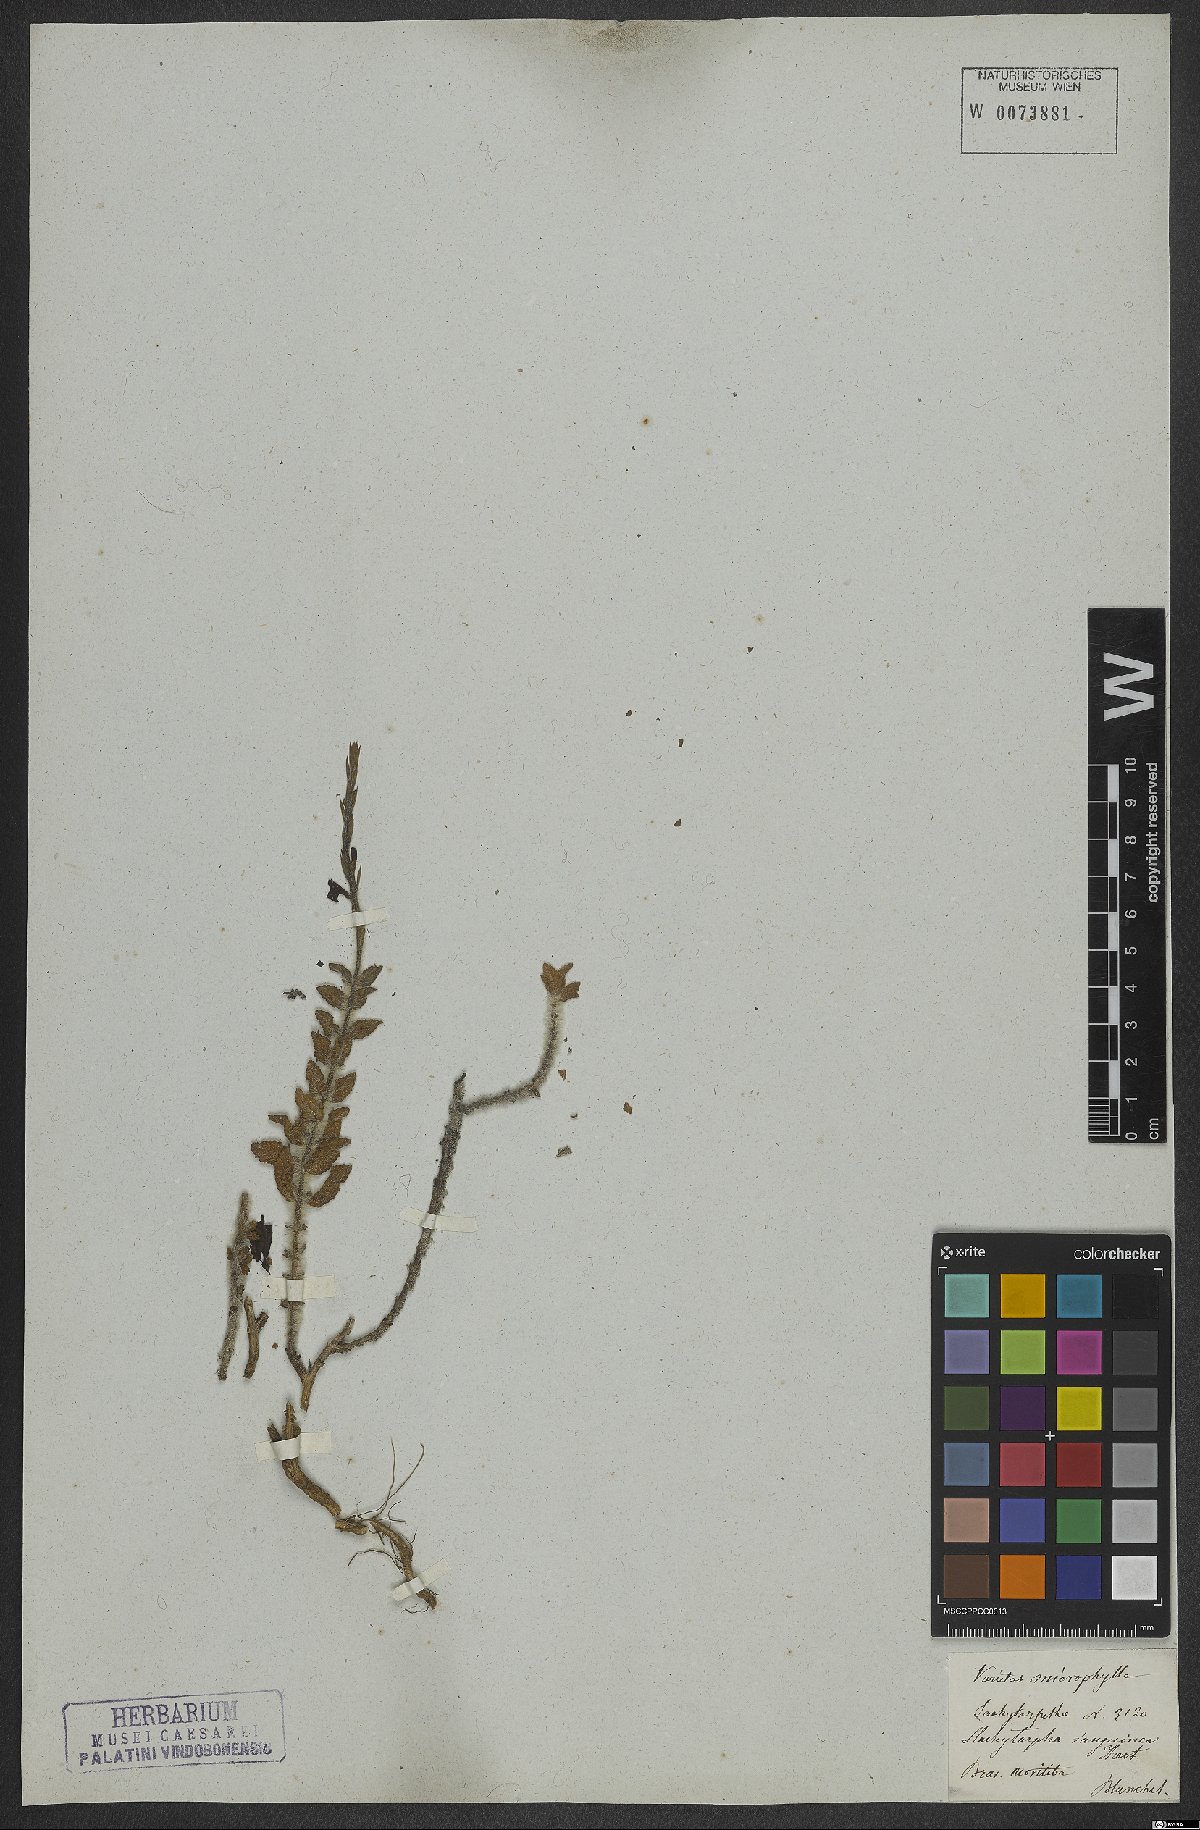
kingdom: Plantae
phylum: Tracheophyta
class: Magnoliopsida
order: Lamiales
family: Verbenaceae
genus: Stachytarpheta
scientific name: Stachytarpheta microphylla
